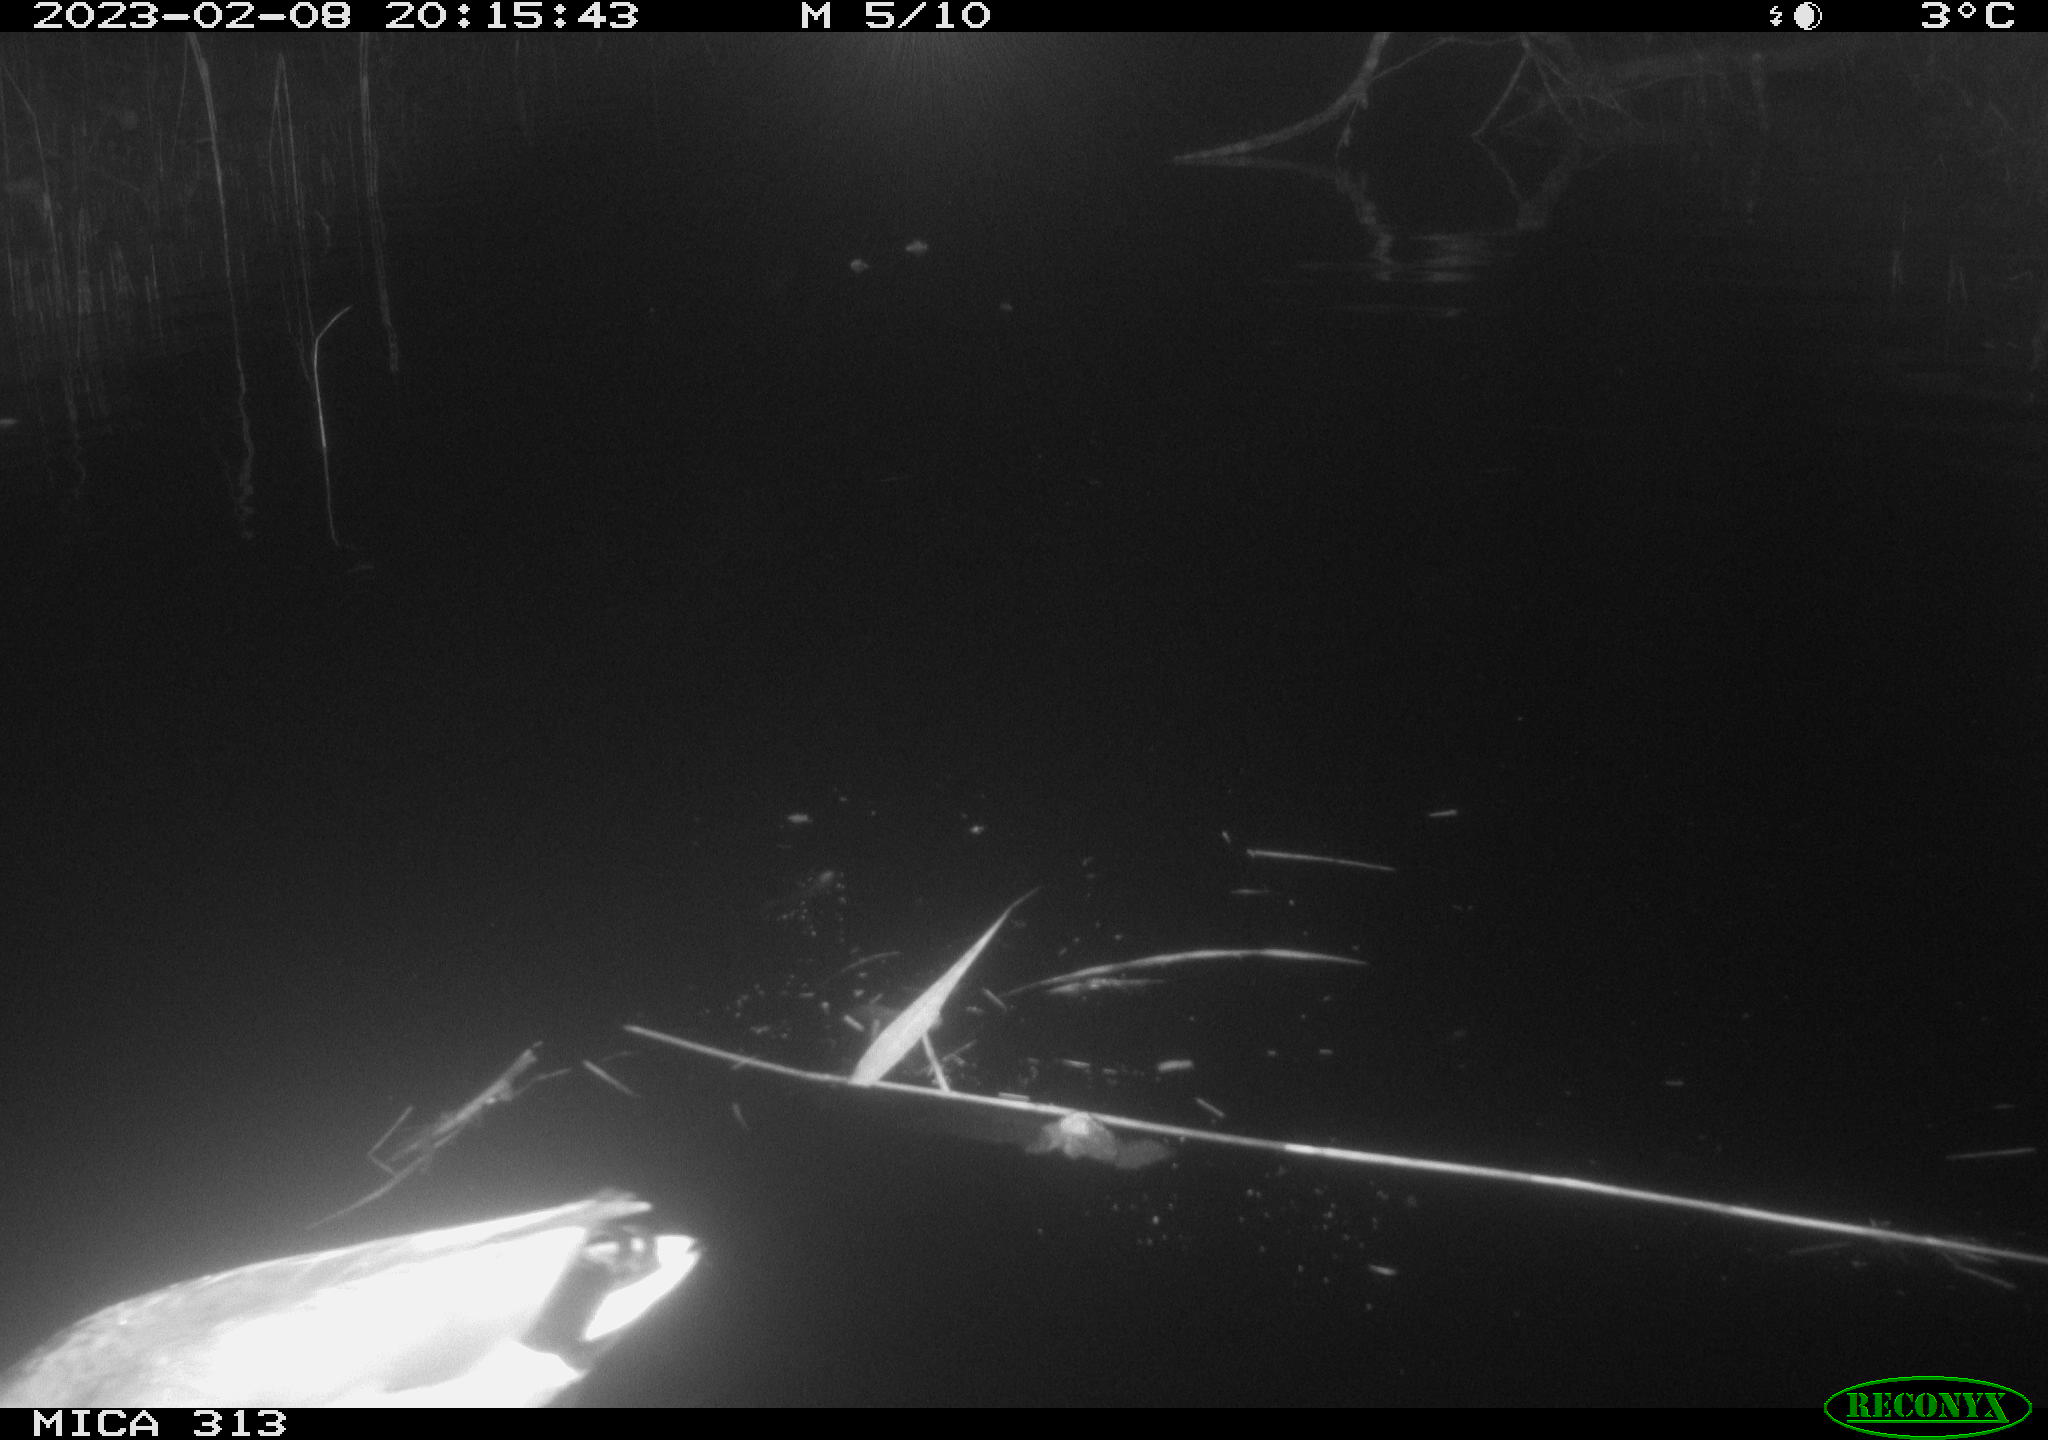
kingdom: Animalia
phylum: Chordata
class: Aves
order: Anseriformes
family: Anatidae
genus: Anas
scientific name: Anas
